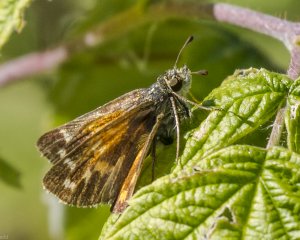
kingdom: Animalia
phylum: Arthropoda
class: Insecta
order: Lepidoptera
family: Hesperiidae
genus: Hesperia
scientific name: Hesperia comma
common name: Common Branded Skipper
